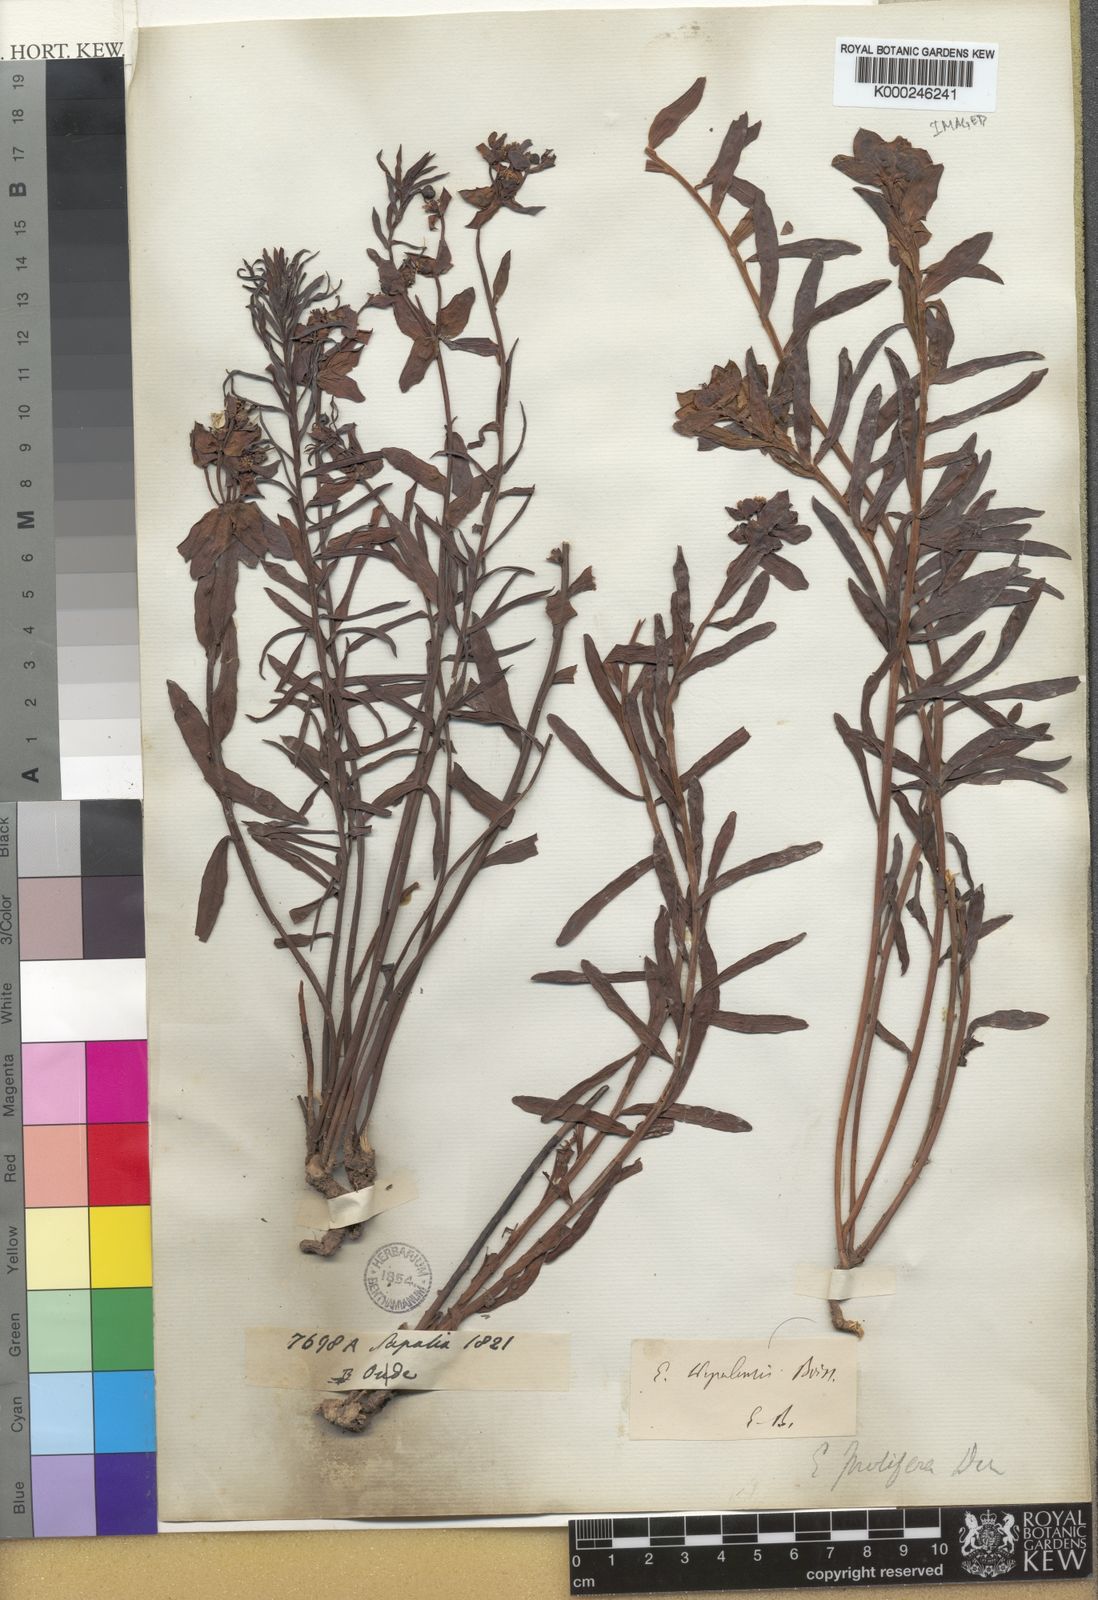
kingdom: Plantae
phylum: Tracheophyta
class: Magnoliopsida
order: Malpighiales
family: Euphorbiaceae
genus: Euphorbia
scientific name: Euphorbia obovata
